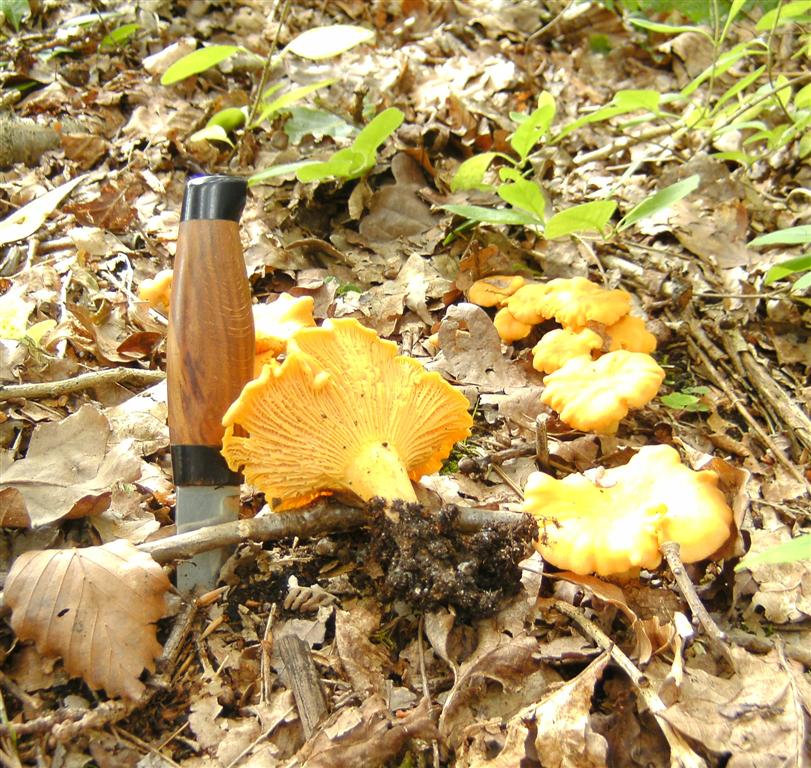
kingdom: Fungi
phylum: Basidiomycota
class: Agaricomycetes
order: Cantharellales
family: Hydnaceae
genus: Cantharellus
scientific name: Cantharellus pallens
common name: bleg kantarel
